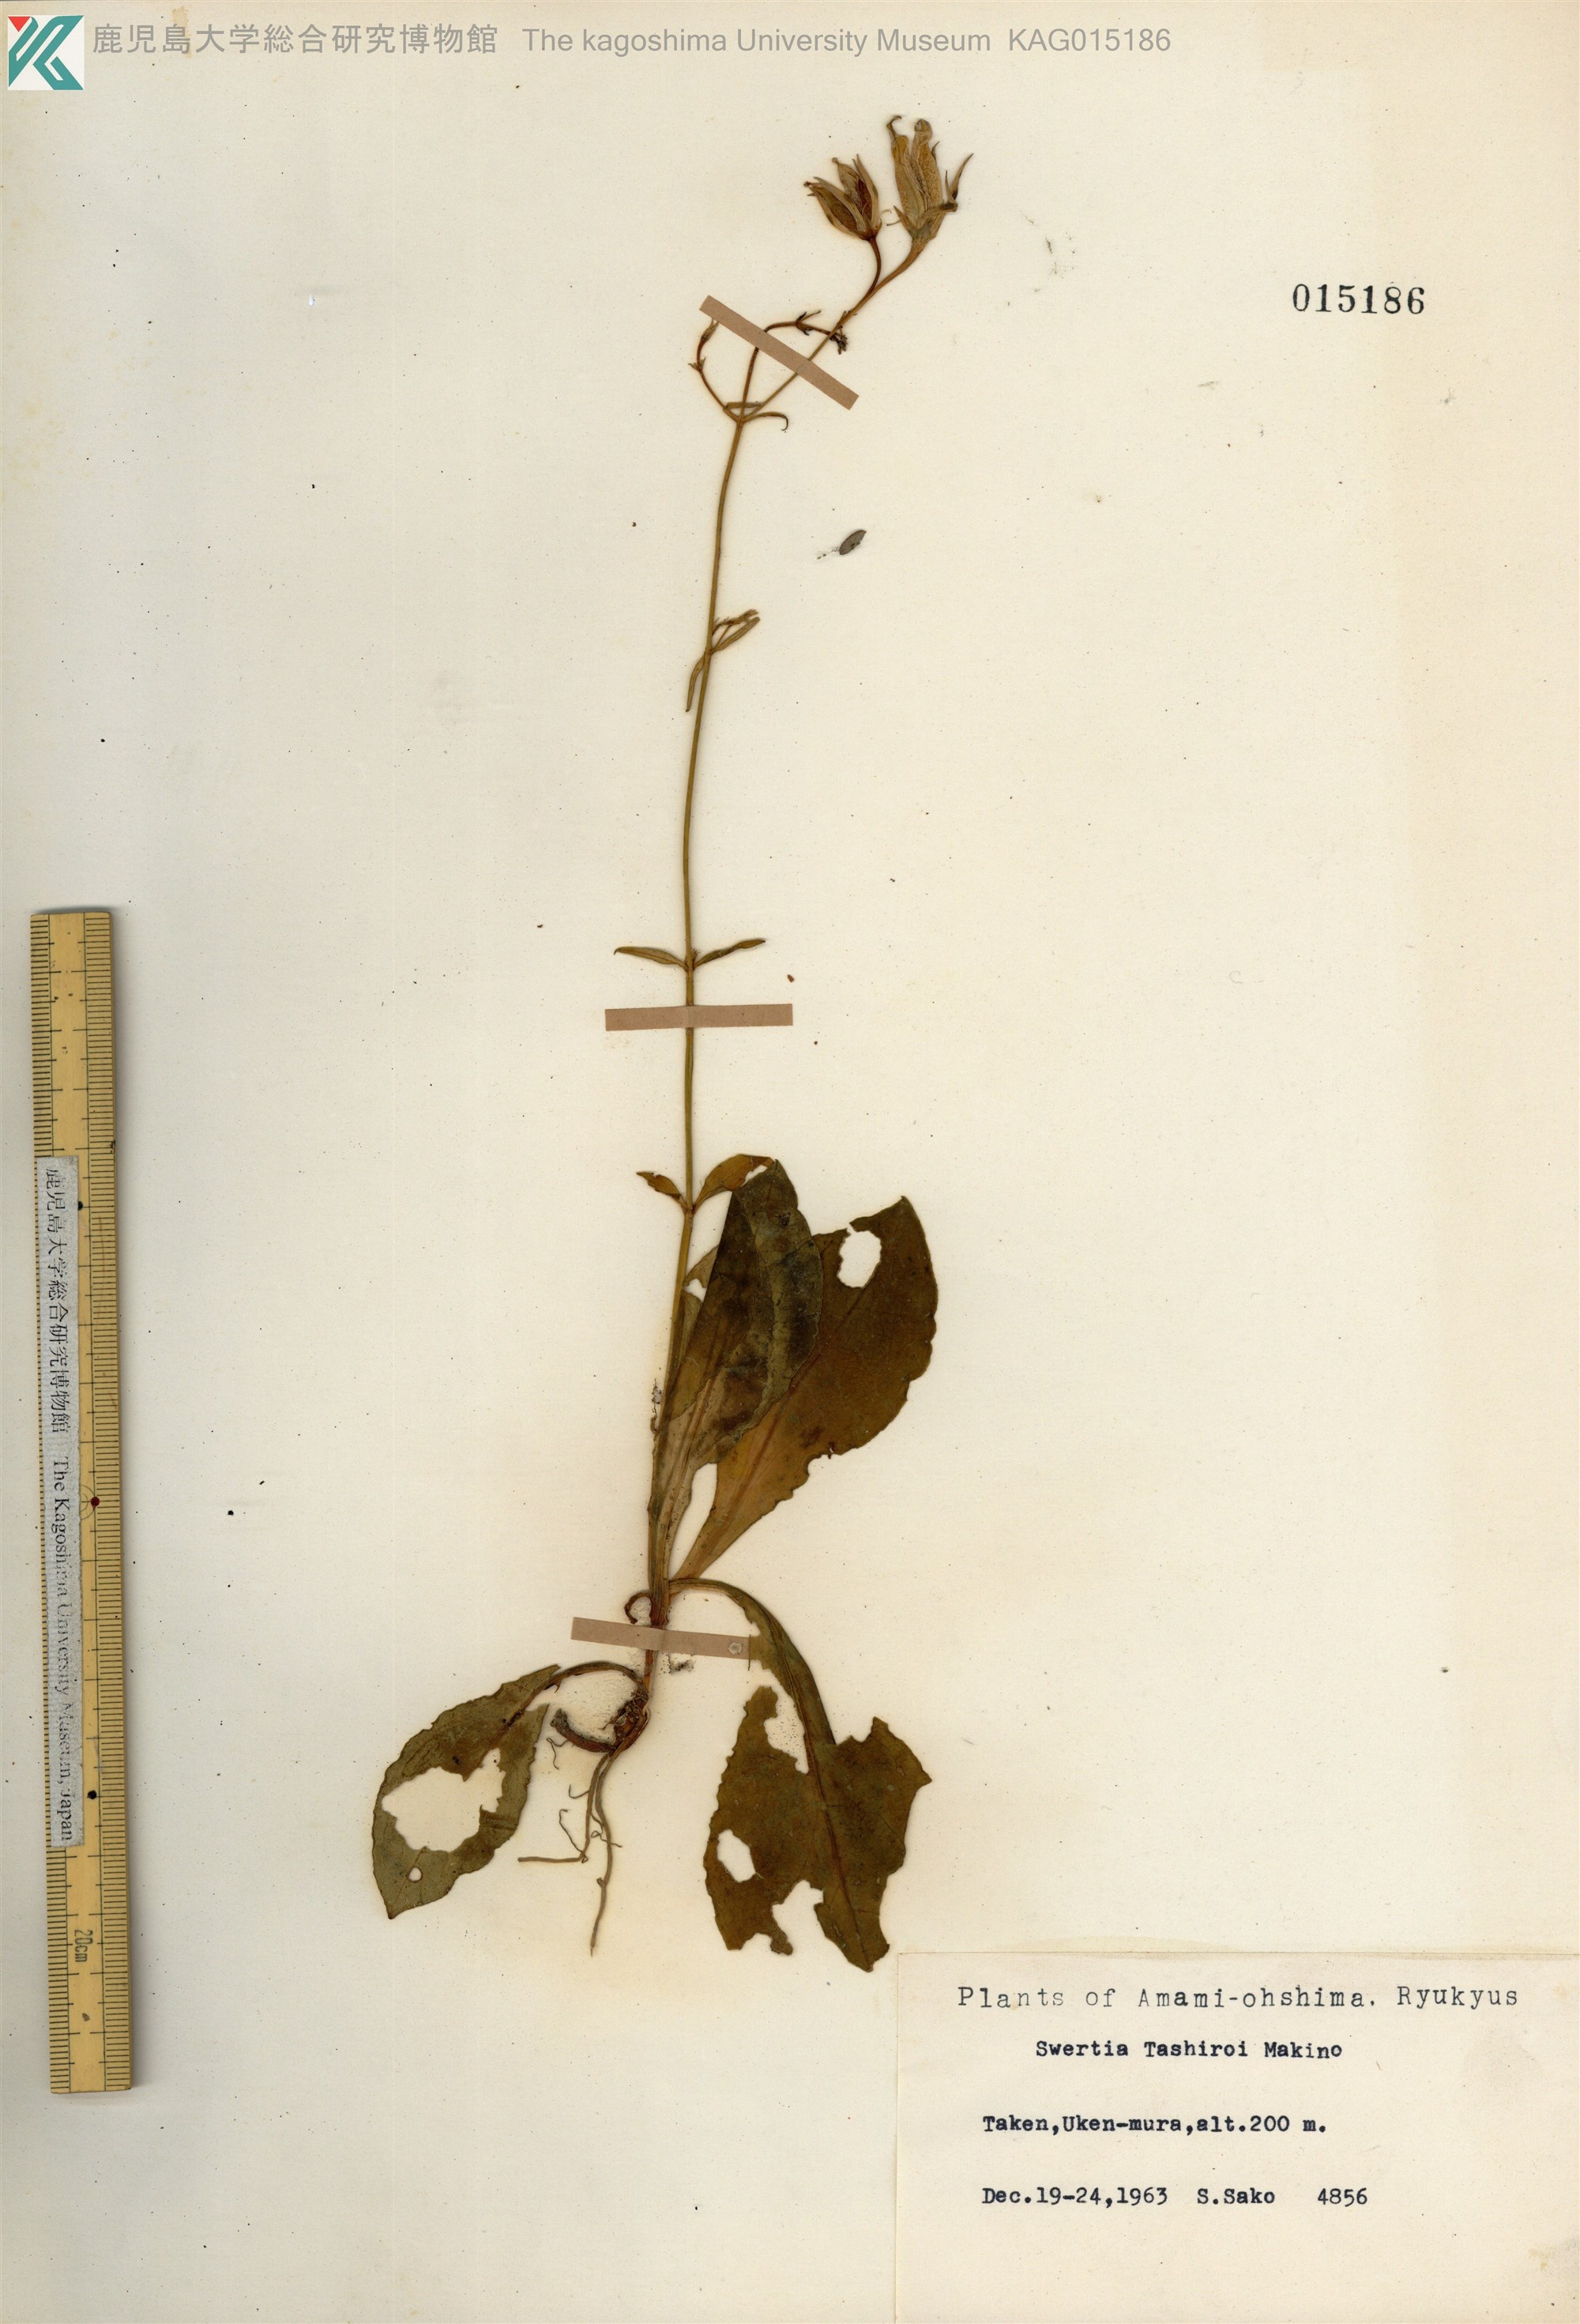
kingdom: Plantae
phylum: Tracheophyta
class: Magnoliopsida
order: Gentianales
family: Gentianaceae
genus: Swertia
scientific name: Swertia tashiroi
